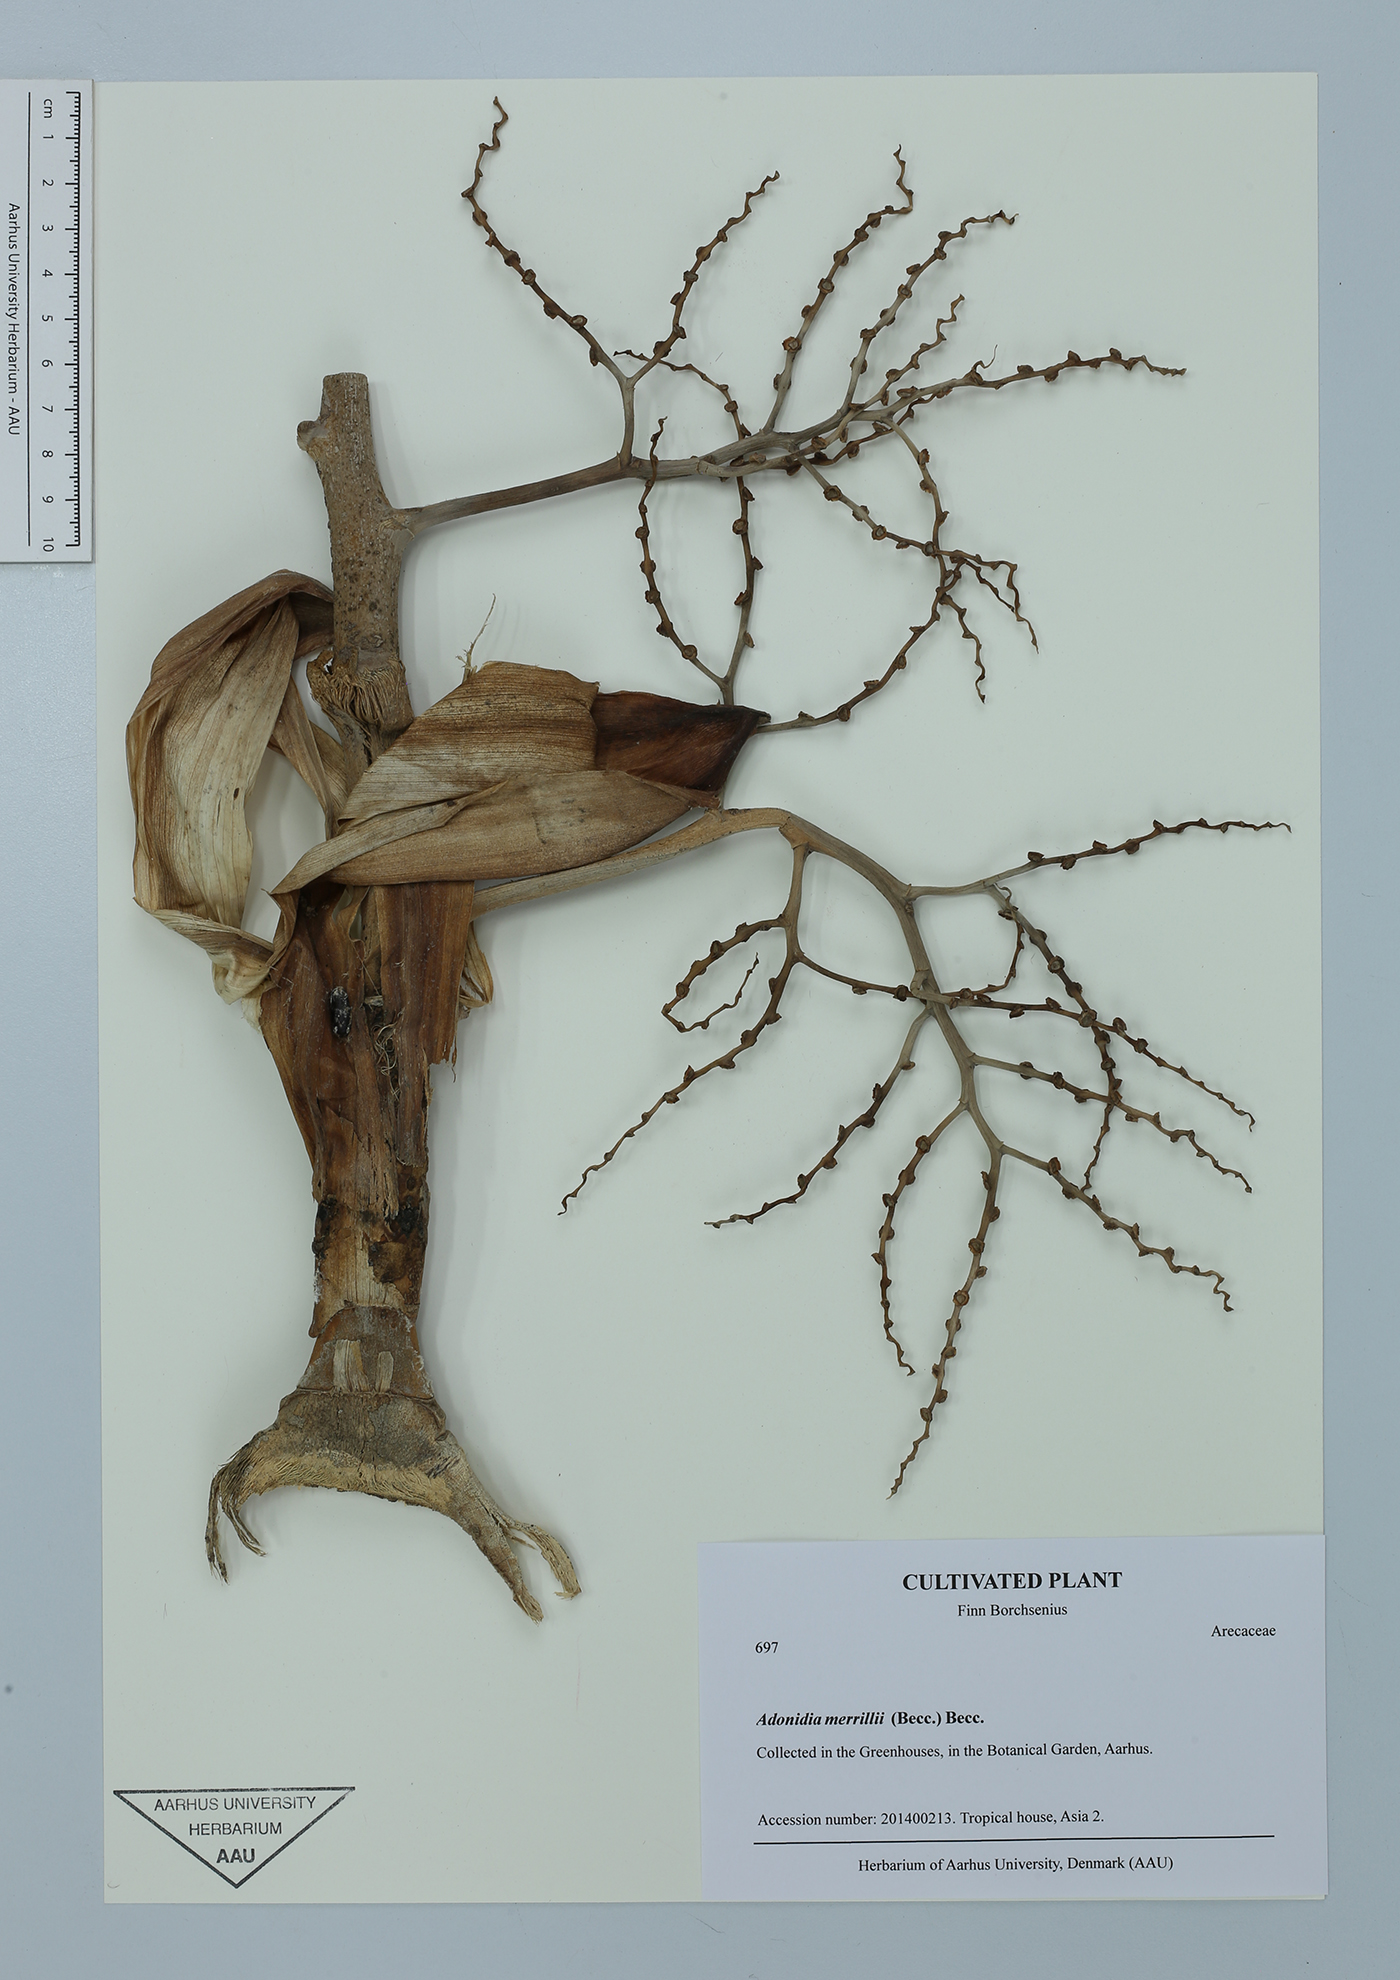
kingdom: Plantae
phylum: Tracheophyta
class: Liliopsida
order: Arecales
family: Arecaceae
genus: Adonidia
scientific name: Adonidia merrillii
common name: Manila palm
